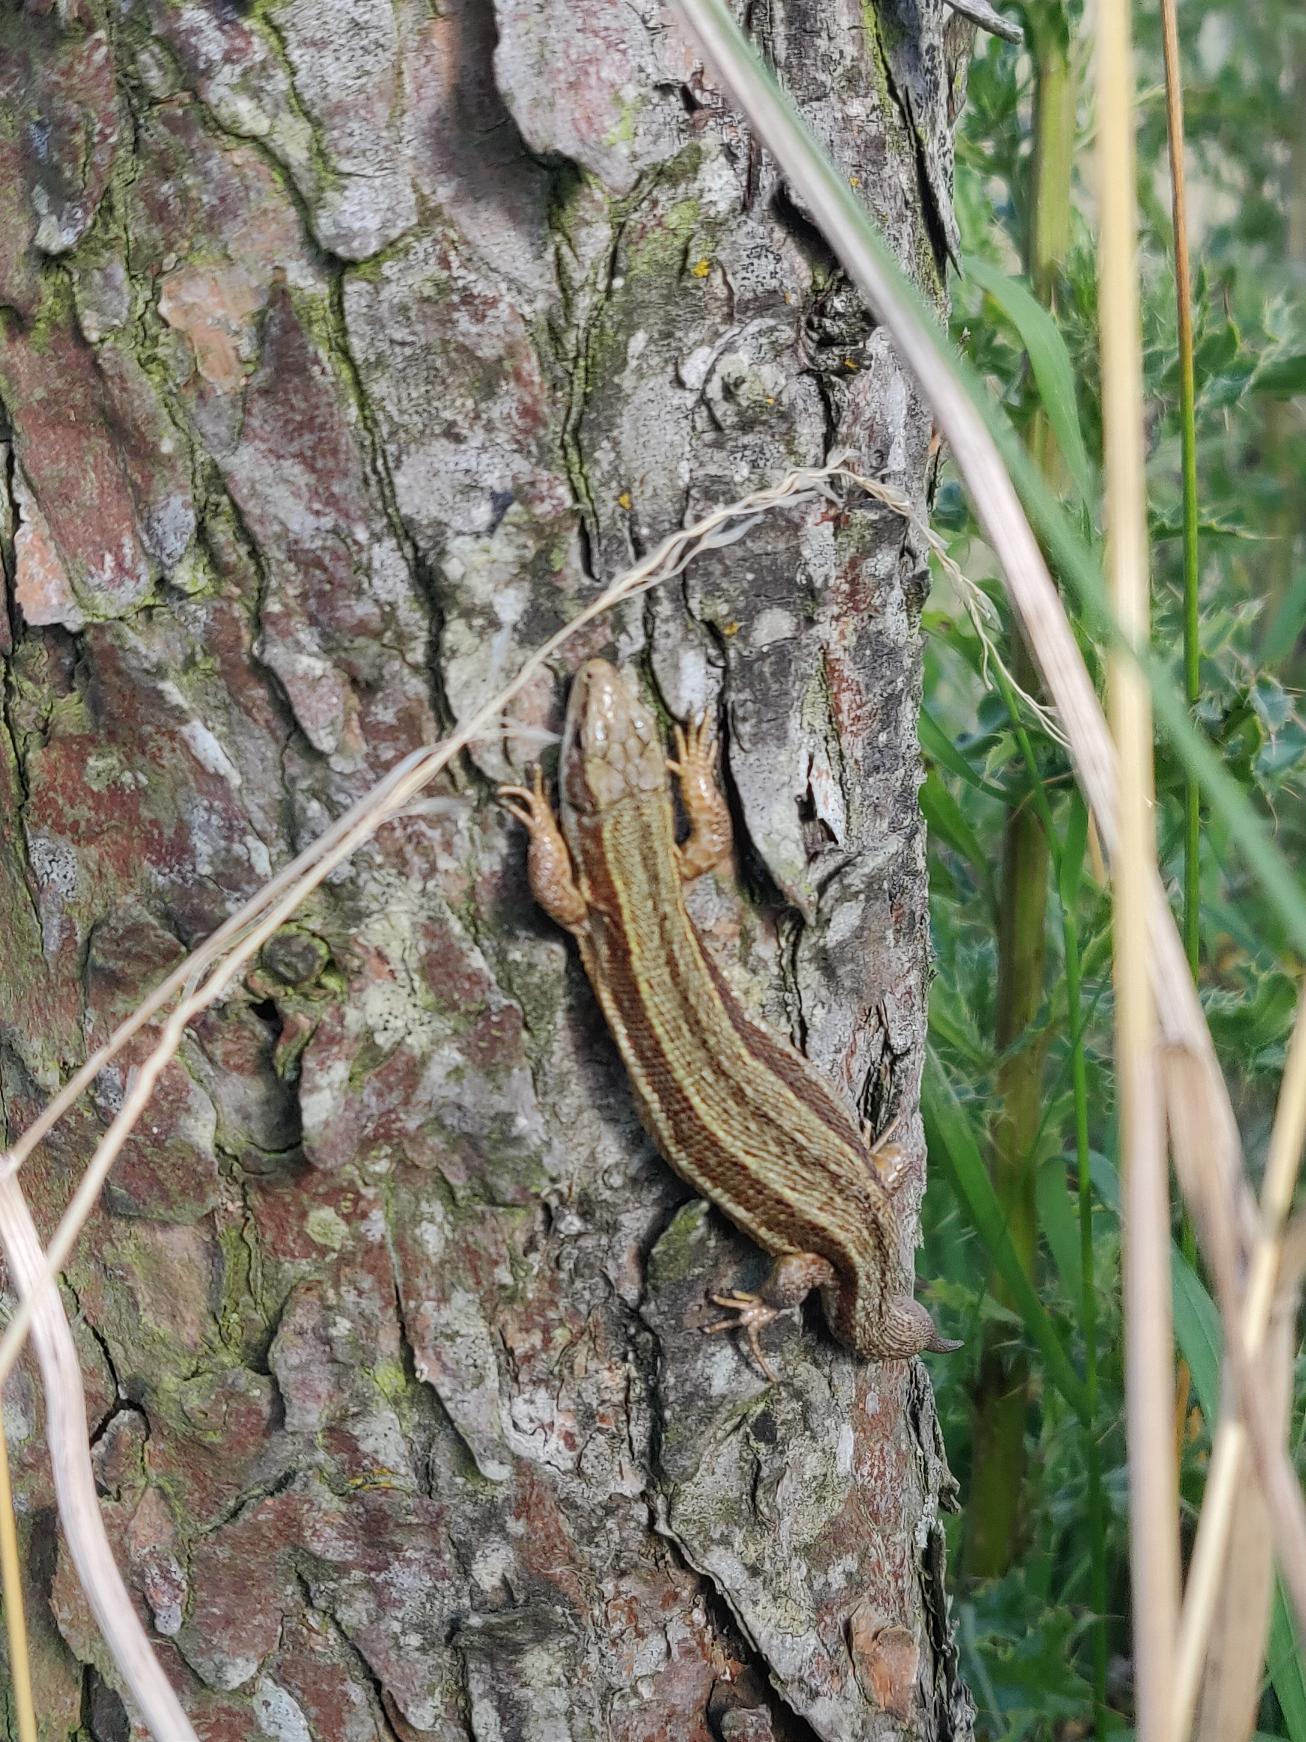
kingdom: Animalia
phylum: Chordata
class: Squamata
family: Lacertidae
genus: Zootoca
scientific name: Zootoca vivipara
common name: Skovfirben
